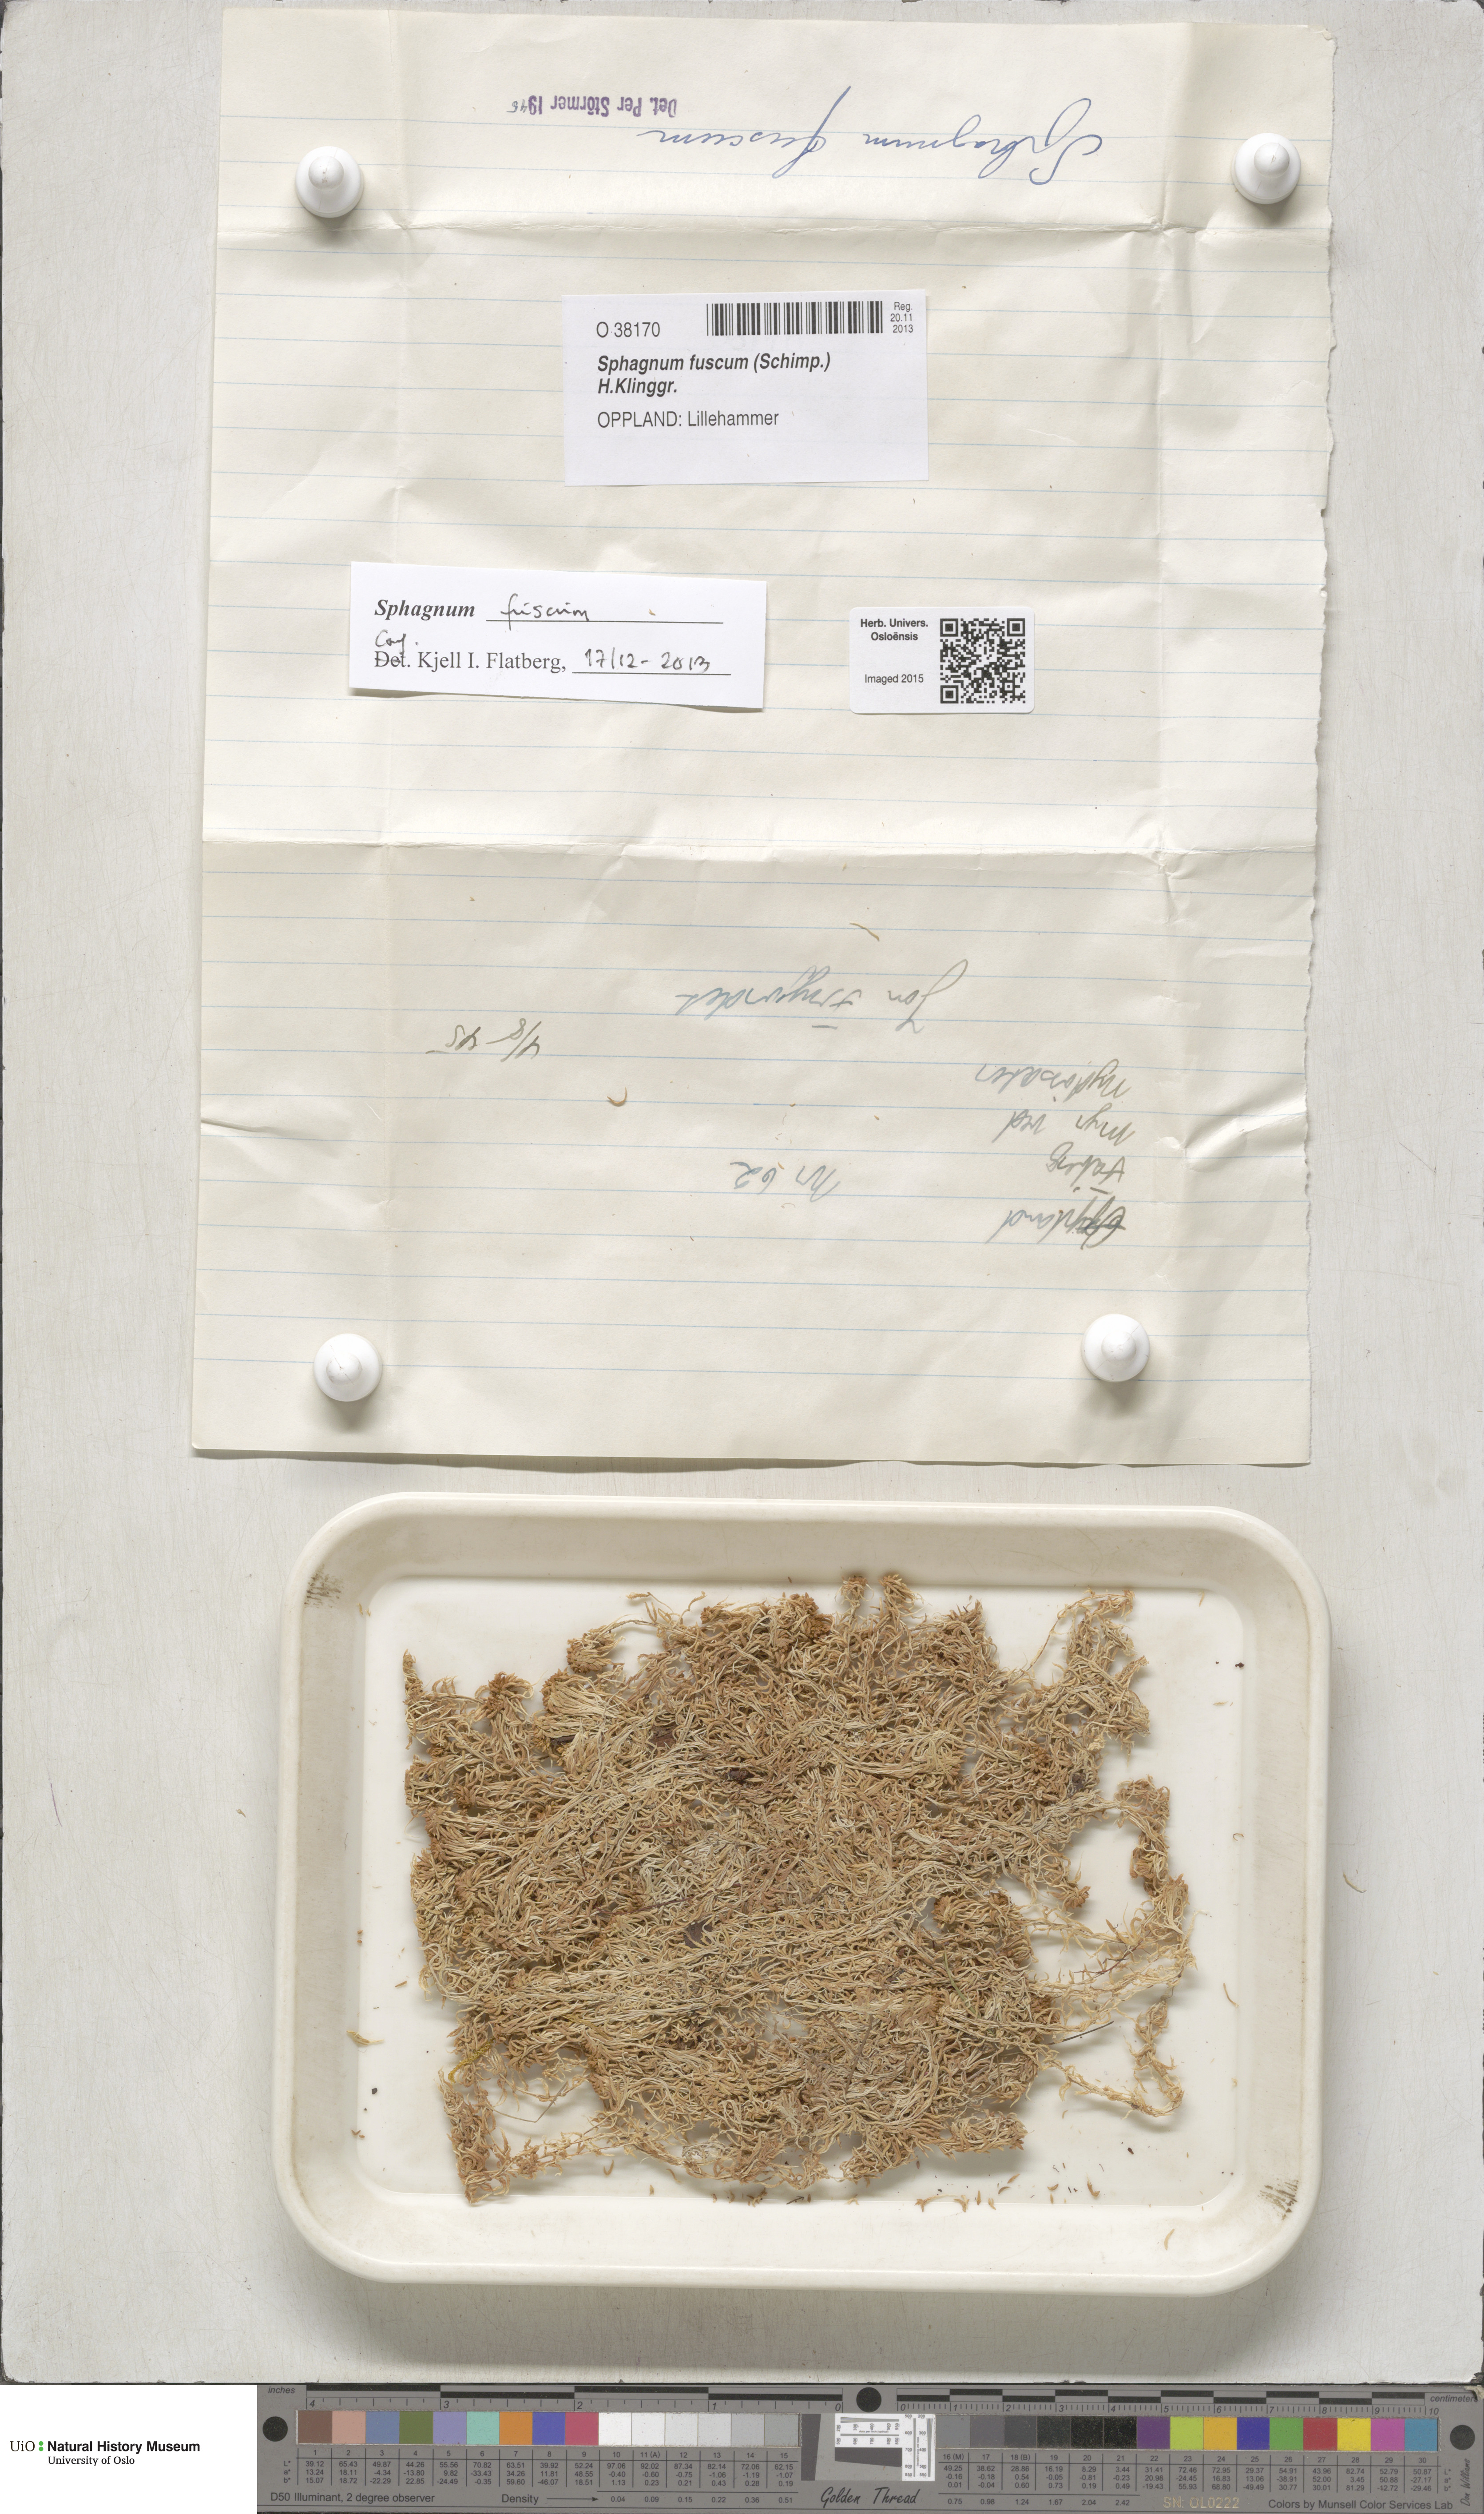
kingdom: Plantae
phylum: Bryophyta
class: Sphagnopsida
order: Sphagnales
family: Sphagnaceae
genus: Sphagnum
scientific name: Sphagnum fuscum
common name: Brown peat moss
